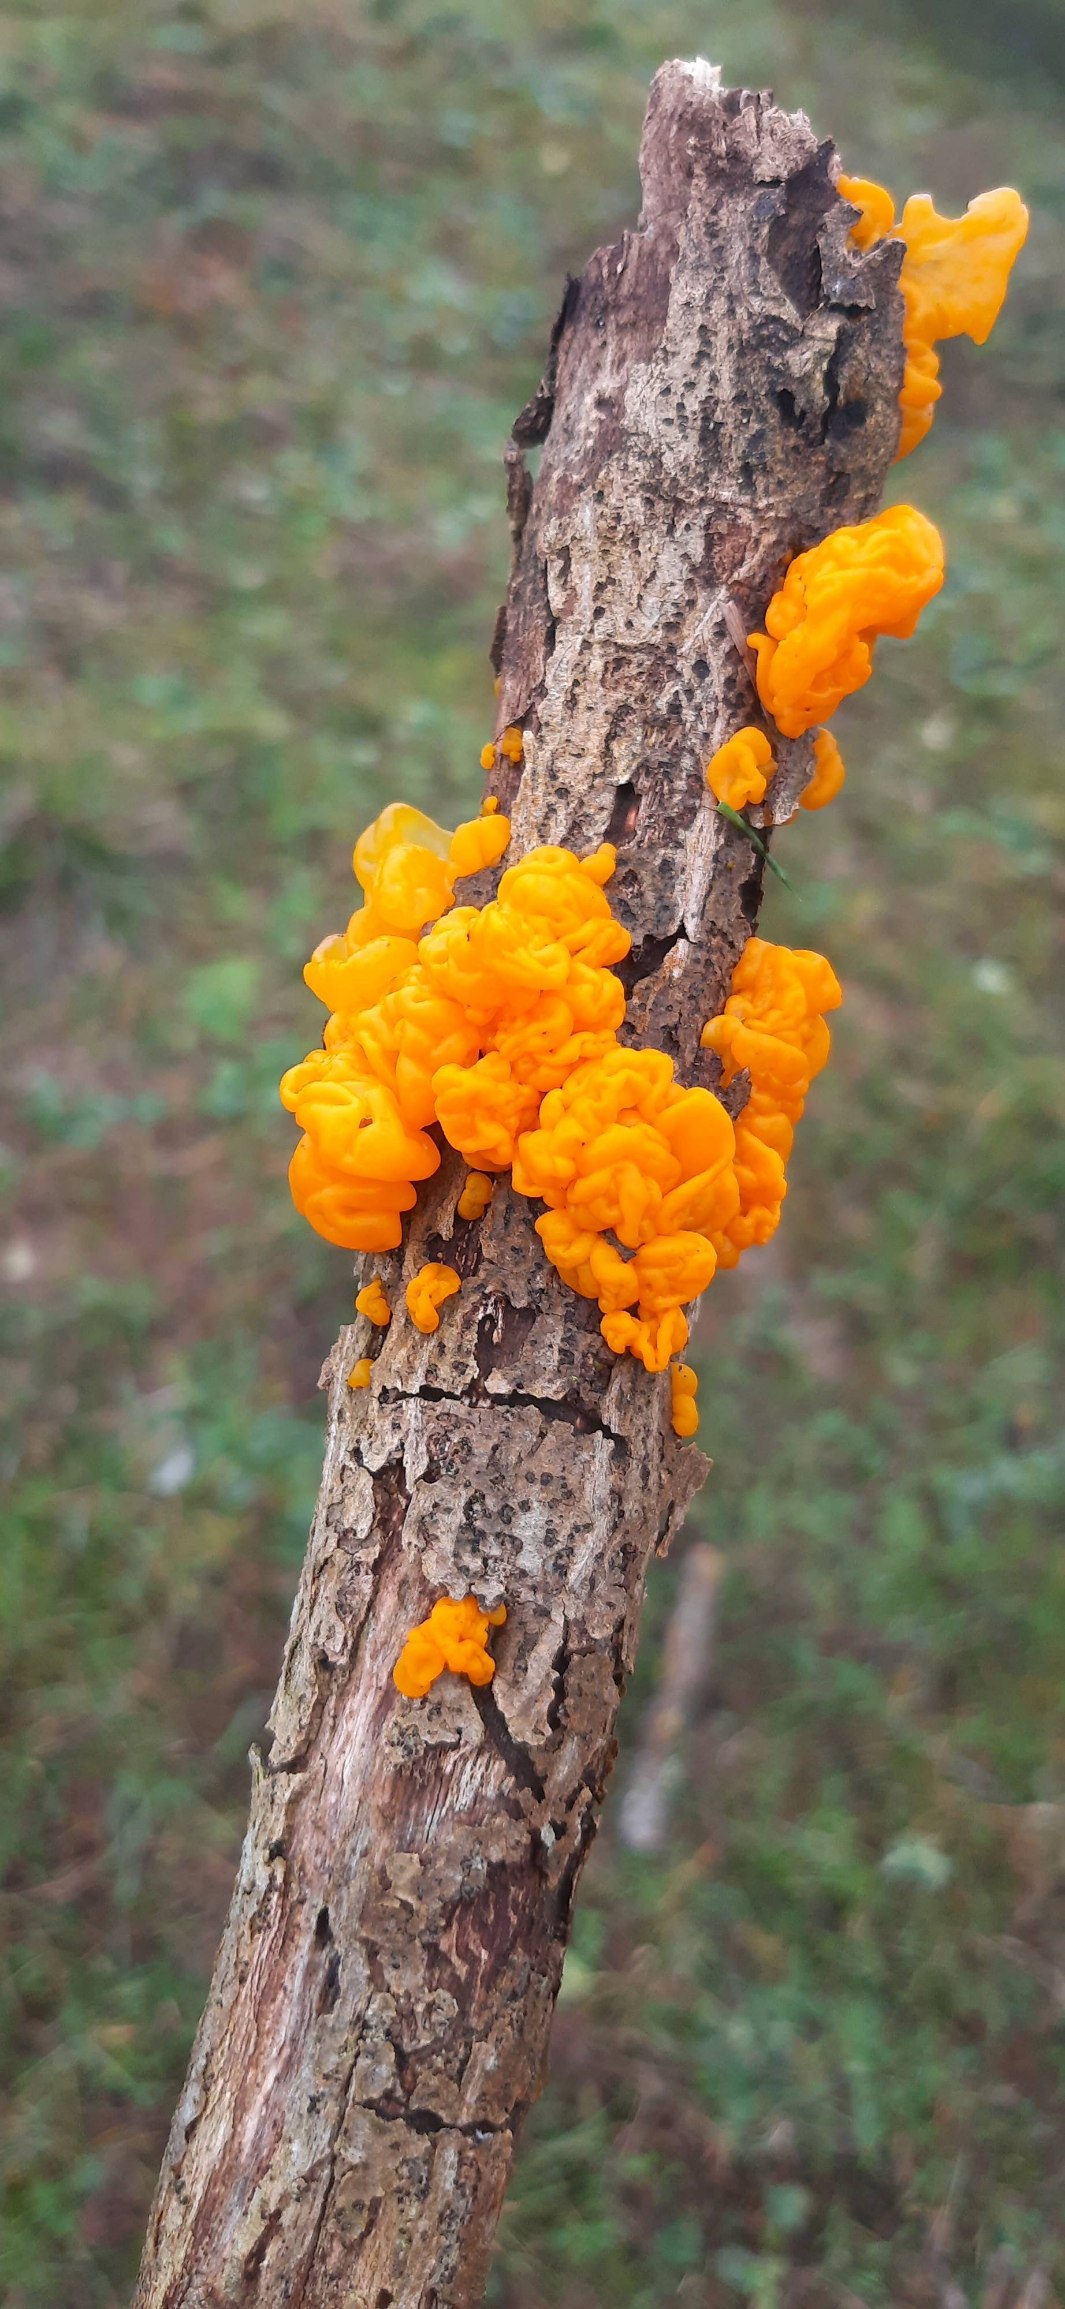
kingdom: Fungi
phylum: Basidiomycota
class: Tremellomycetes
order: Tremellales
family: Tremellaceae
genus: Tremella
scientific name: Tremella mesenterica
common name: Gul bævresvamp
